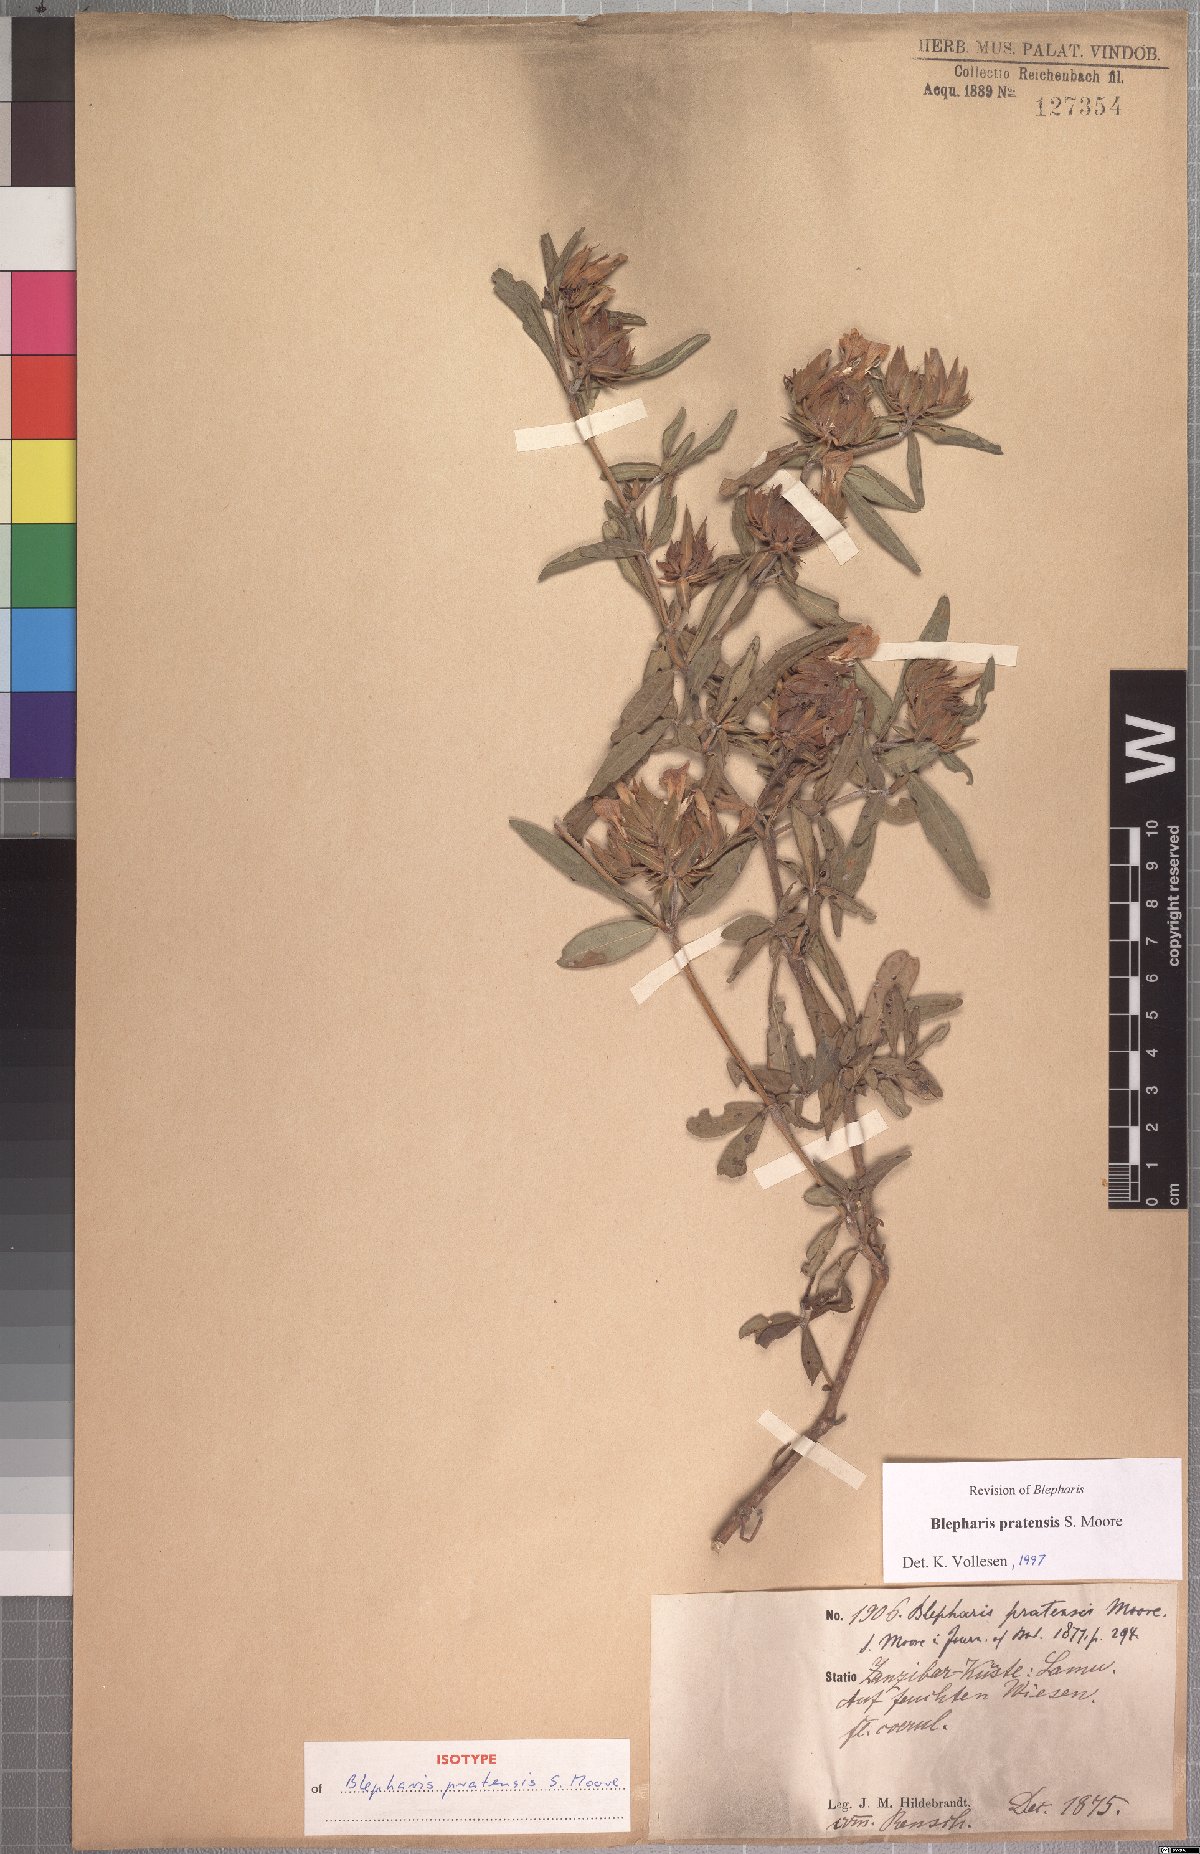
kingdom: Plantae
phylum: Tracheophyta
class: Magnoliopsida
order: Lamiales
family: Acanthaceae
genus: Blepharis
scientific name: Blepharis pratensis
